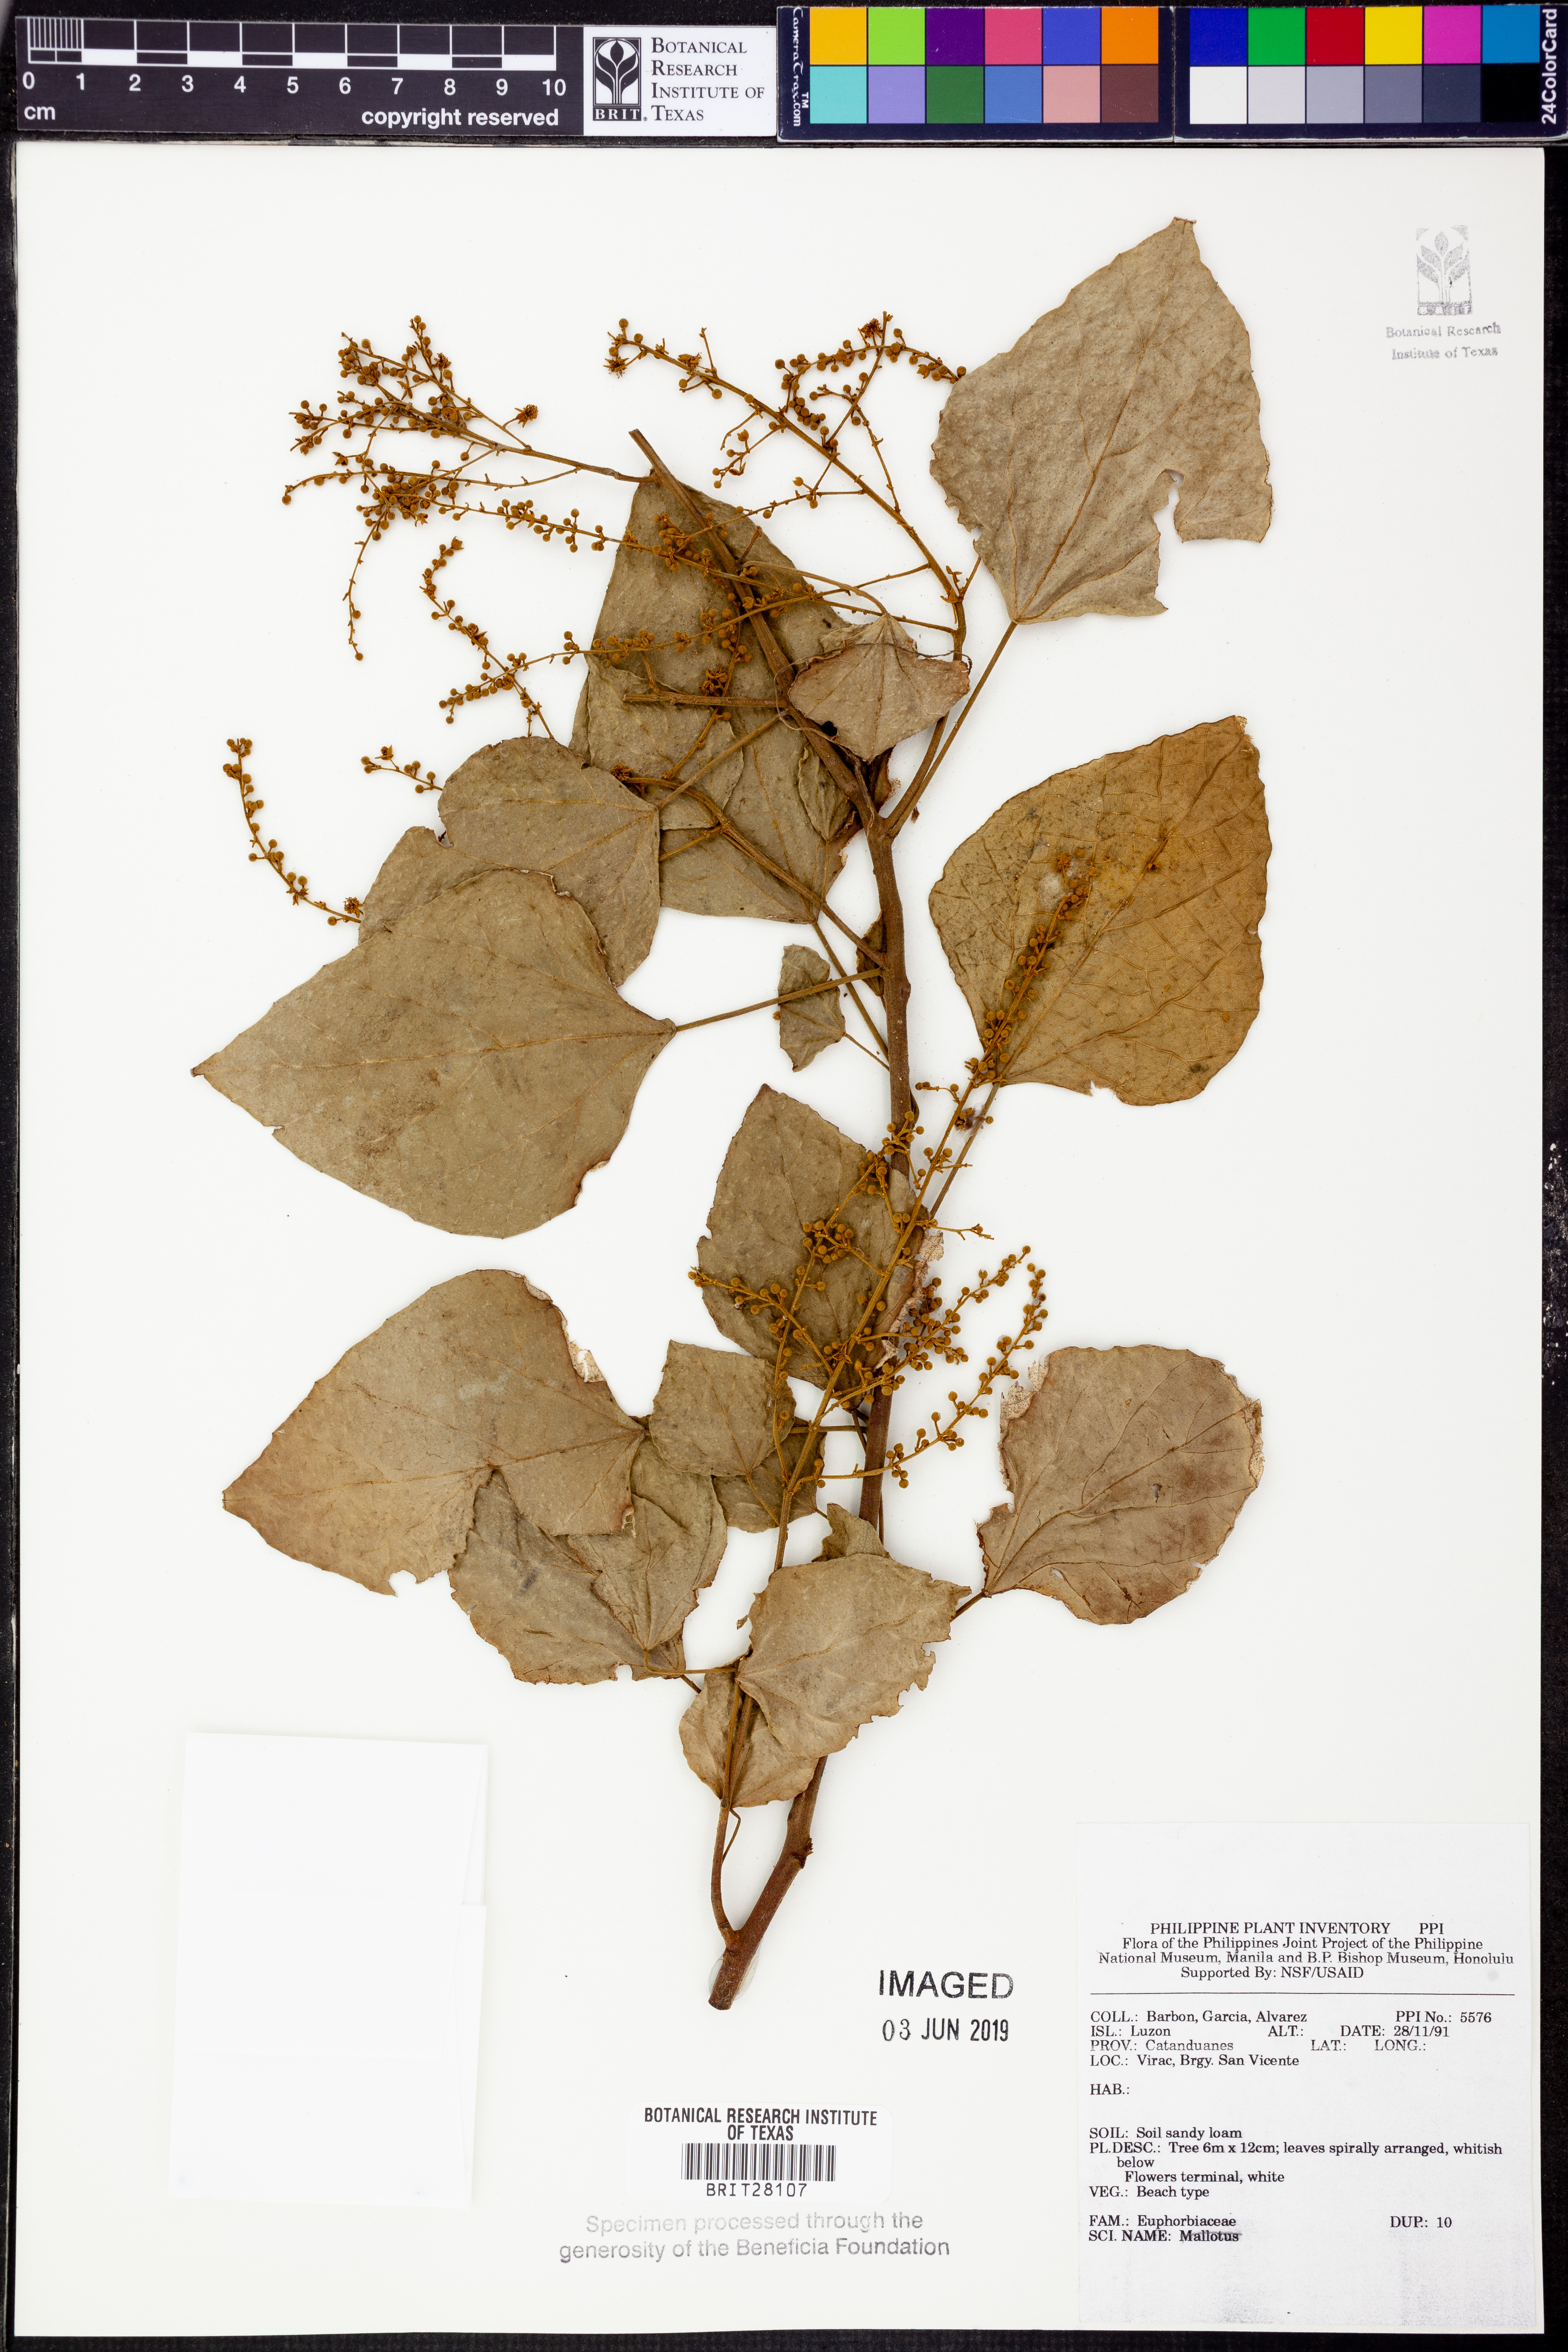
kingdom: Plantae
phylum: Tracheophyta
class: Magnoliopsida
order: Malpighiales
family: Euphorbiaceae
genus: Mallotus
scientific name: Mallotus
